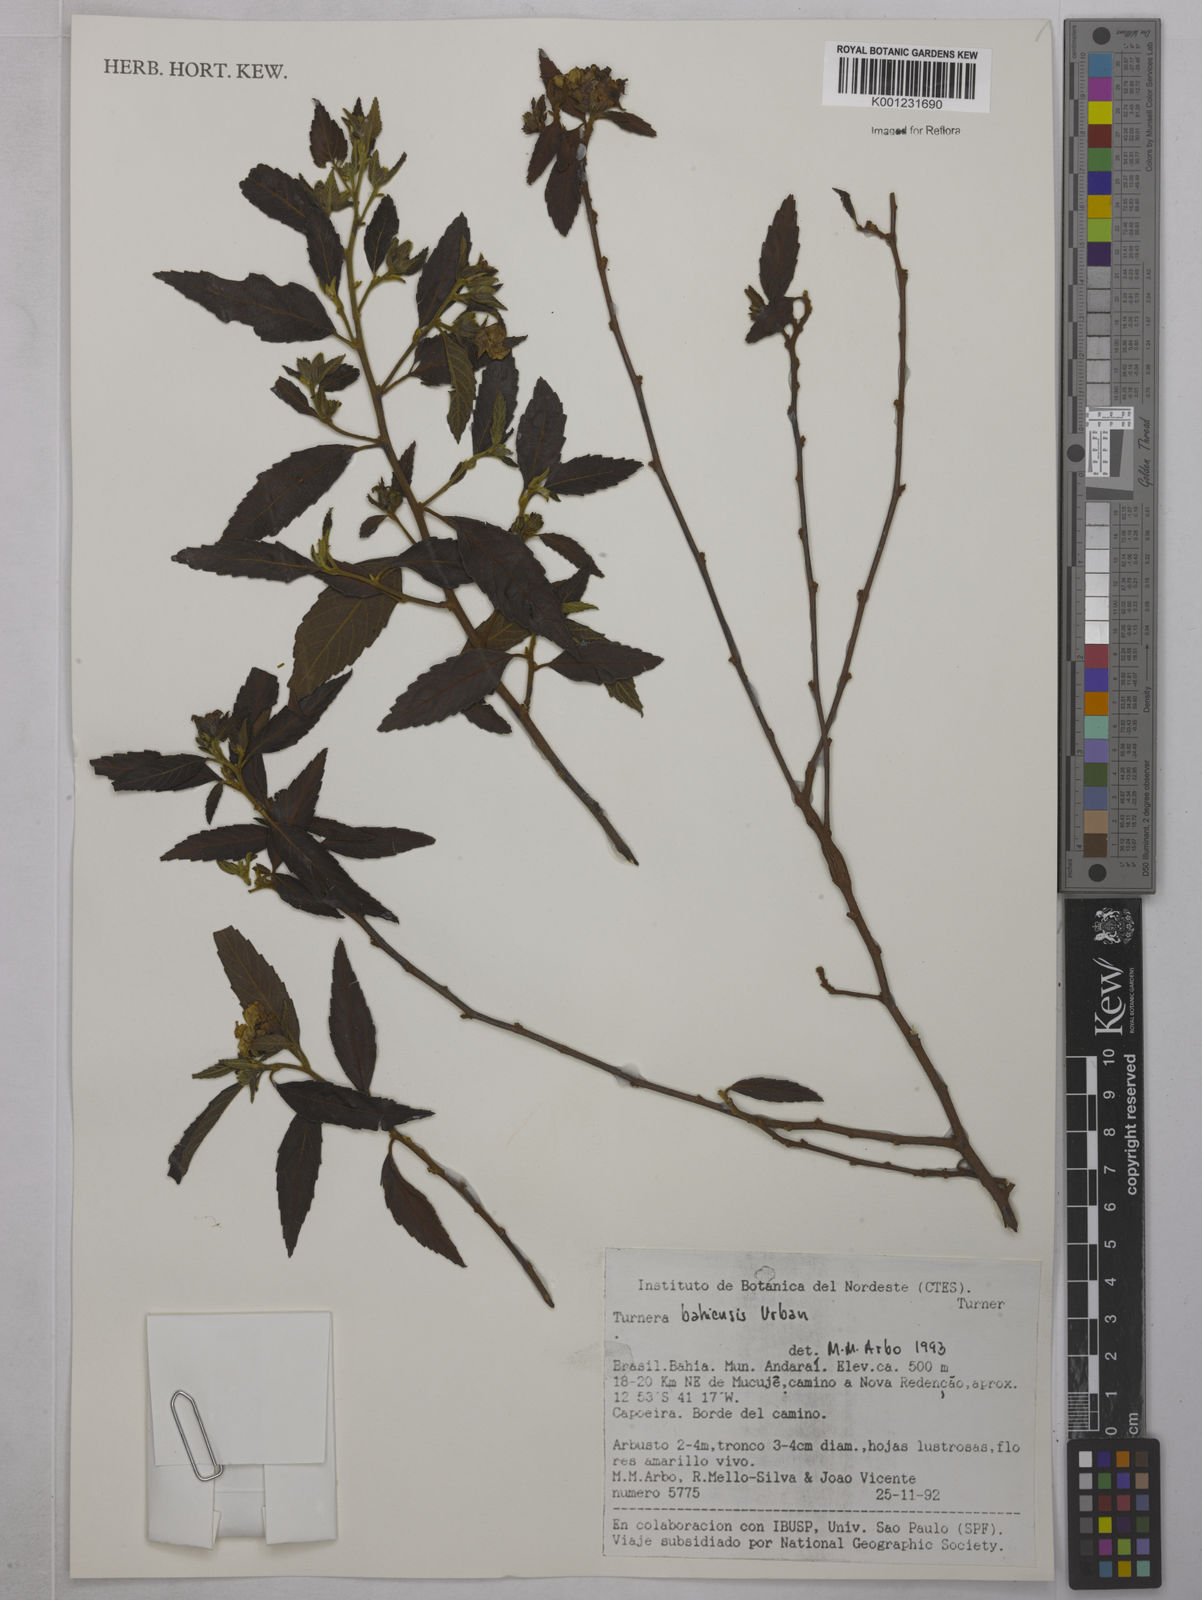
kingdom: Plantae
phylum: Tracheophyta
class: Magnoliopsida
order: Malpighiales
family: Turneraceae
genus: Turnera
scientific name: Turnera bahiensis
